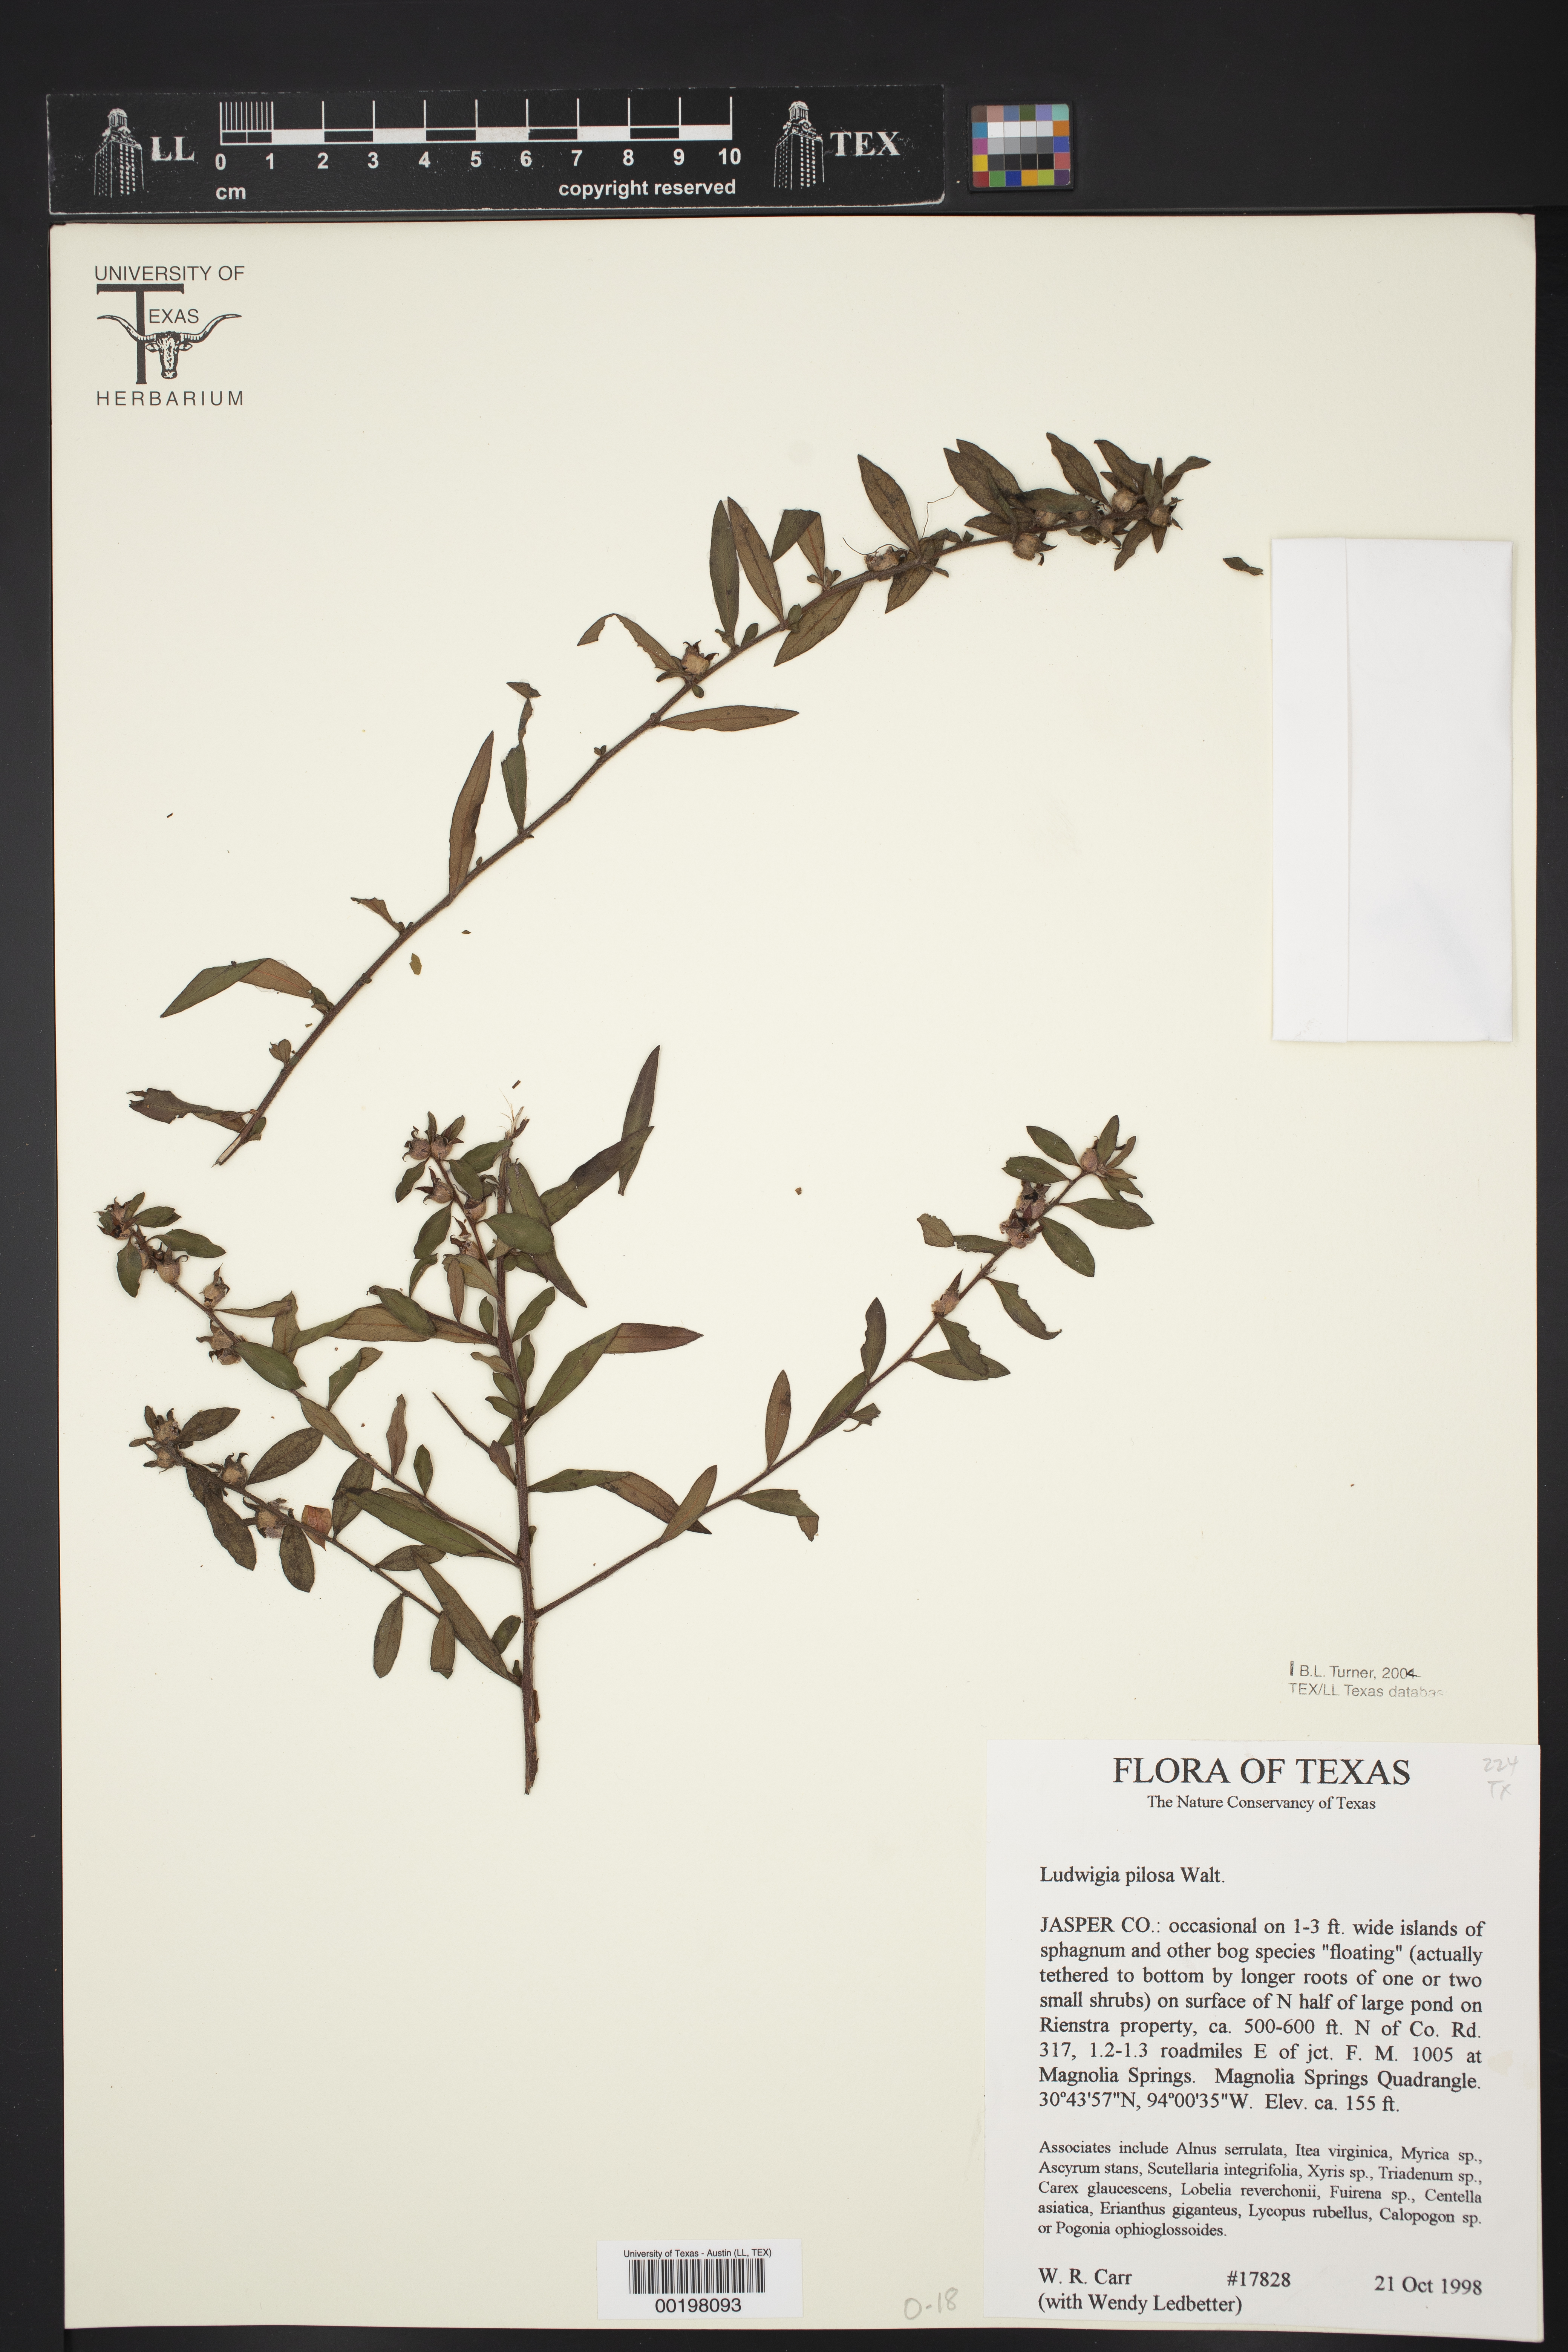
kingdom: Plantae
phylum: Tracheophyta
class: Magnoliopsida
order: Myrtales
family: Onagraceae
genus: Ludwigia
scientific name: Ludwigia pilosa
